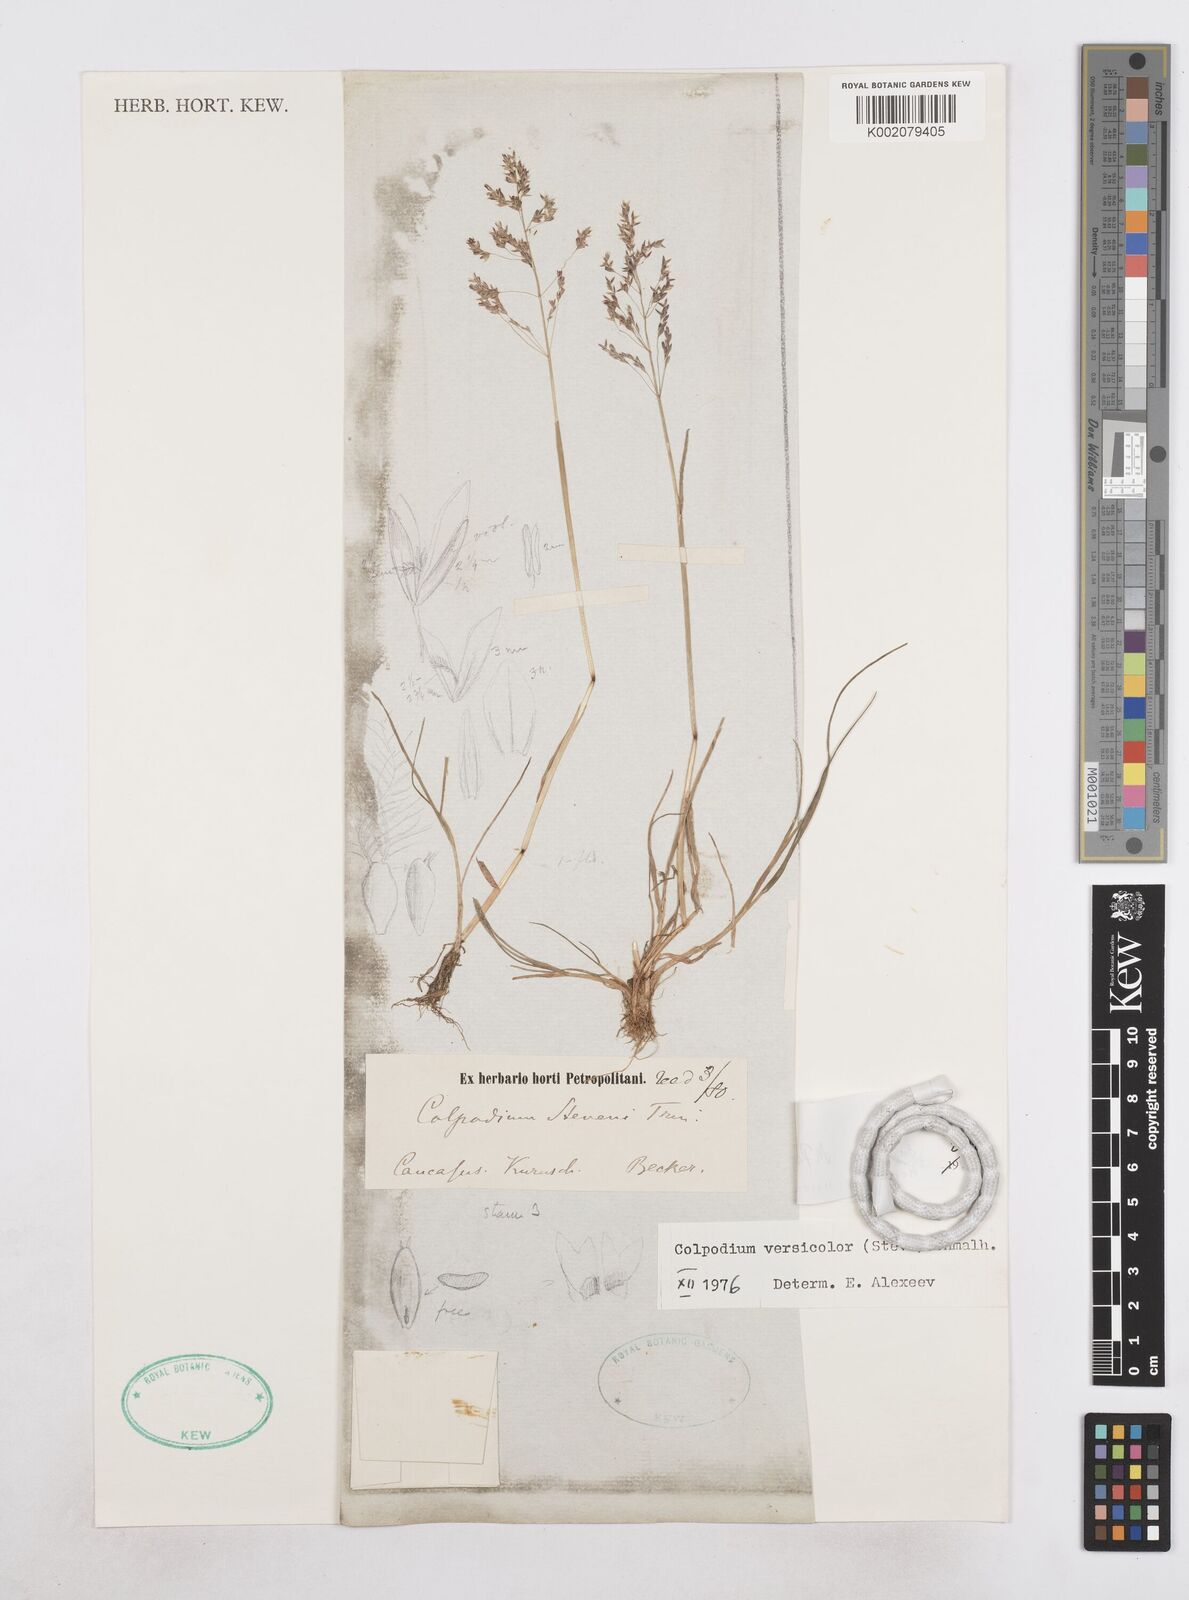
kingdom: Plantae
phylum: Tracheophyta
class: Liliopsida
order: Poales
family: Poaceae
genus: Colpodium
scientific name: Colpodium versicolor
